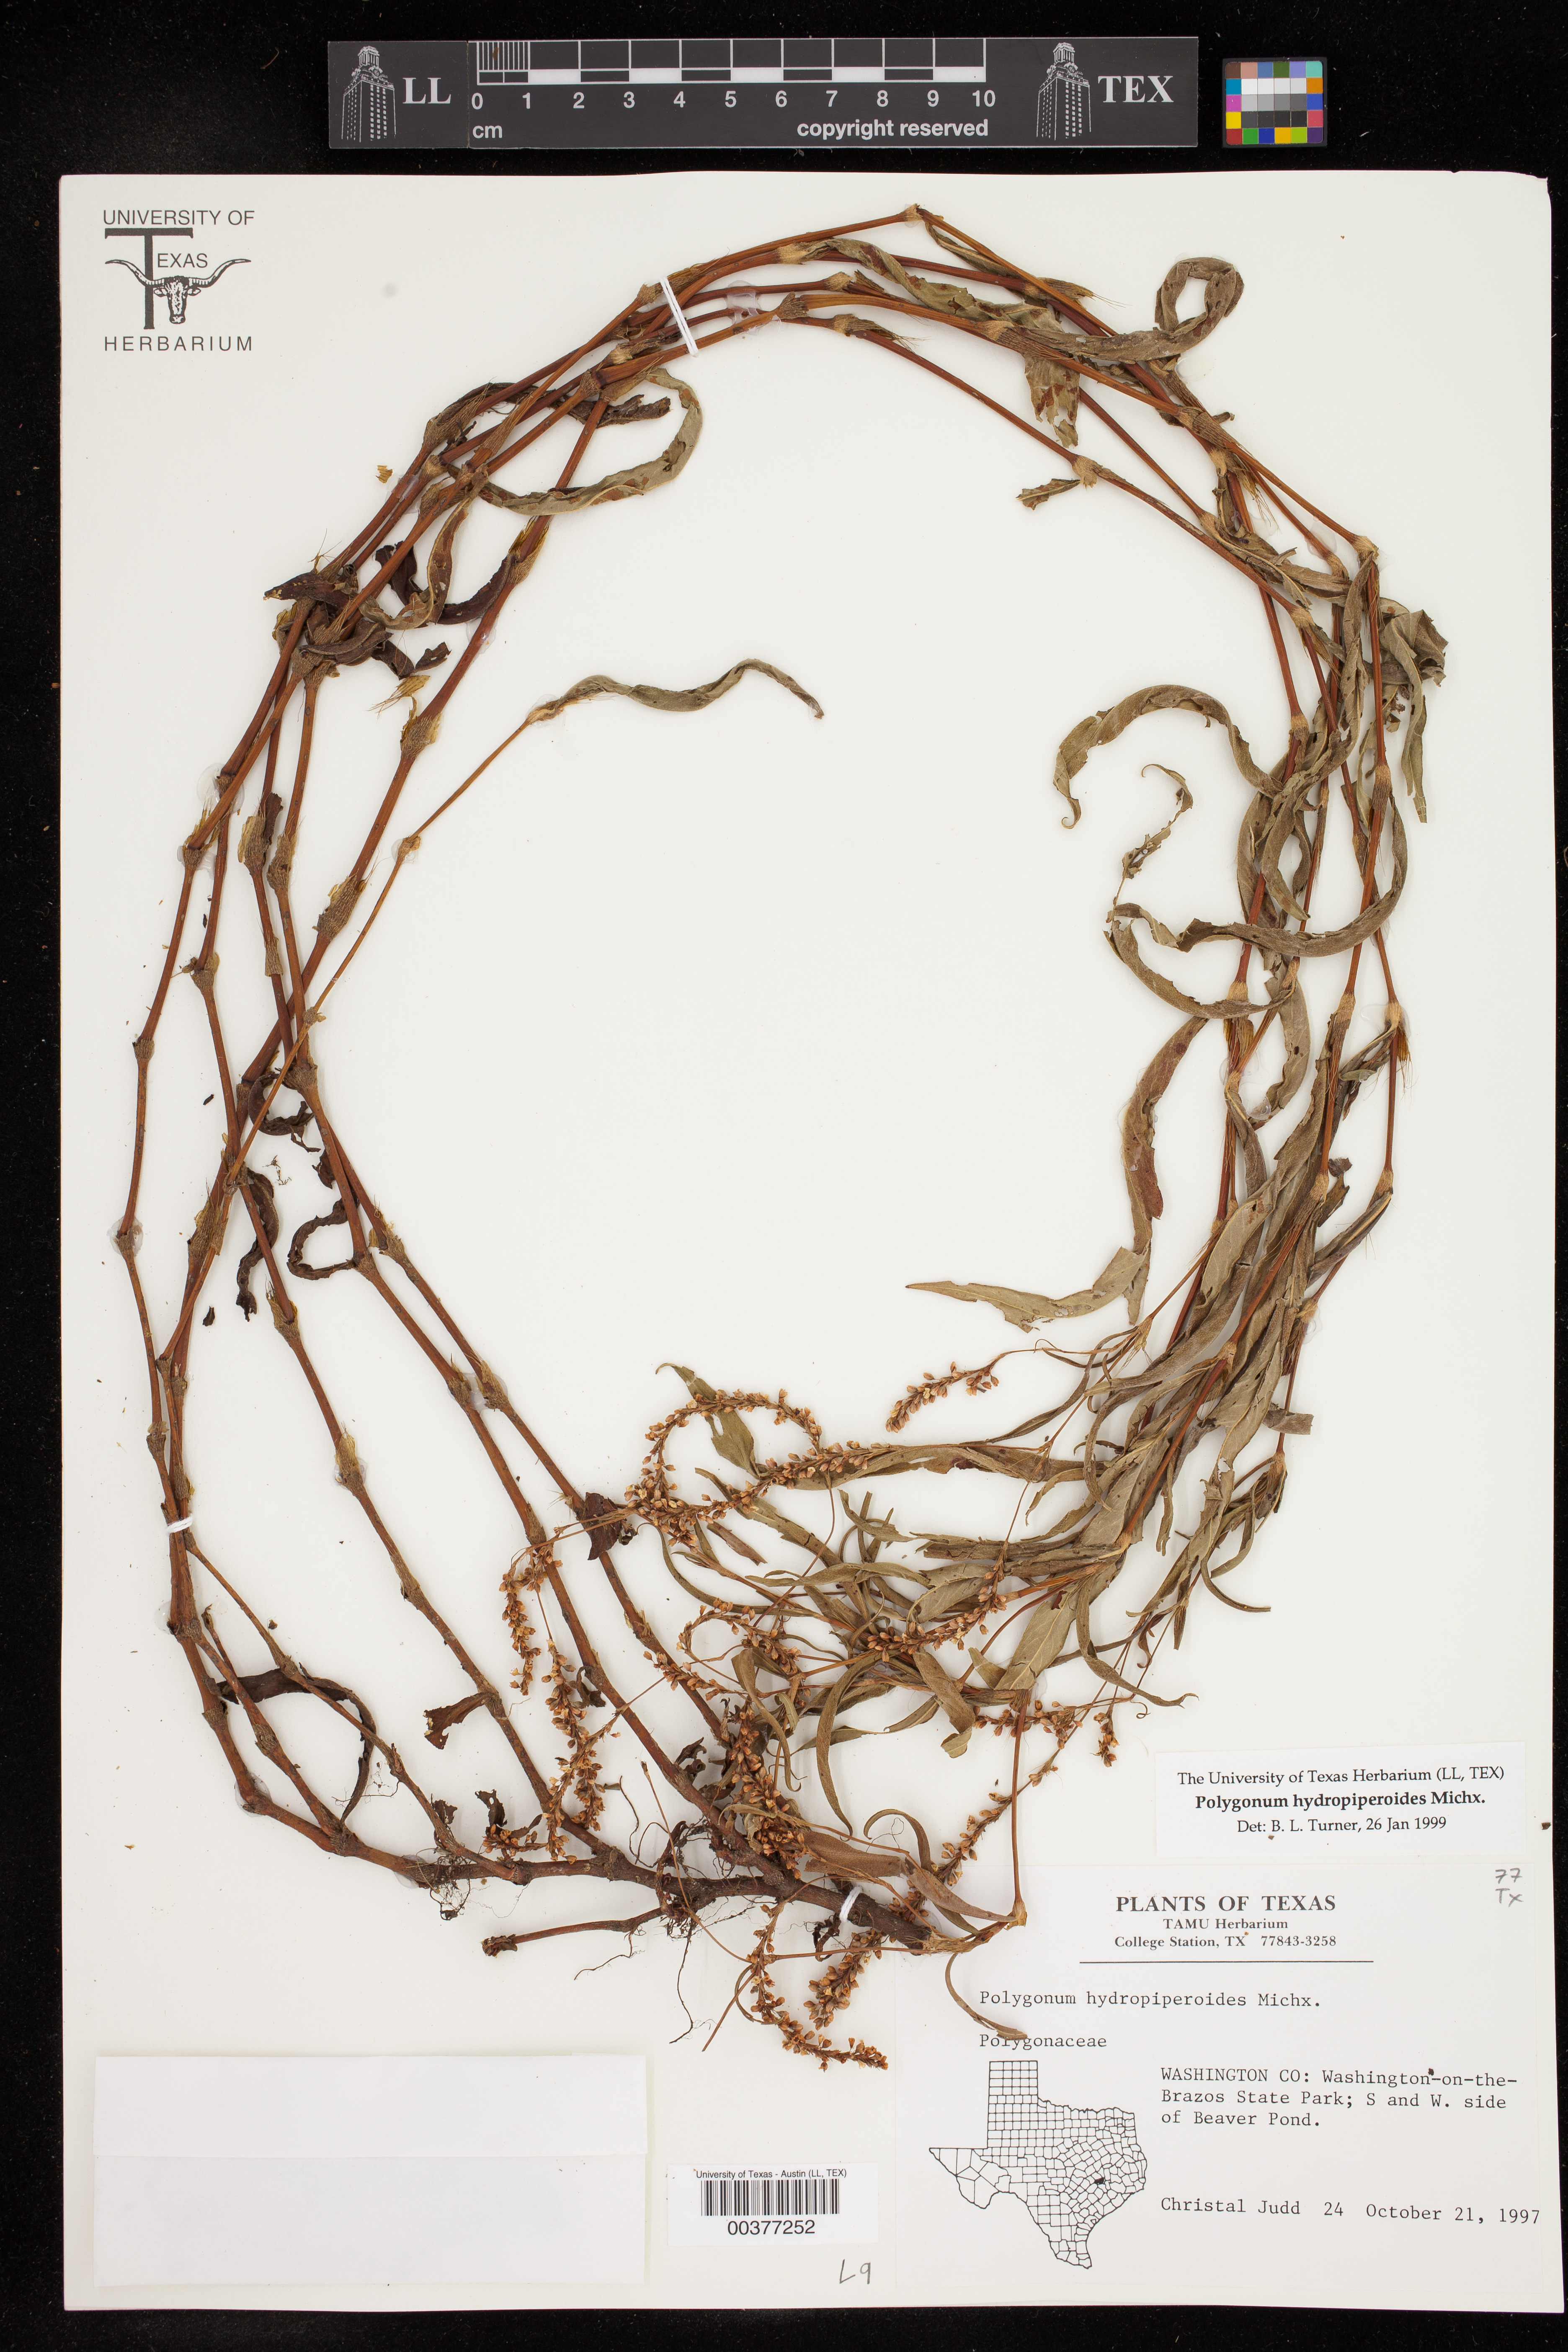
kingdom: Plantae
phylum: Tracheophyta
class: Magnoliopsida
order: Caryophyllales
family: Polygonaceae
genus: Persicaria
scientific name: Persicaria hydropiperoides
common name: Swamp smartweed
